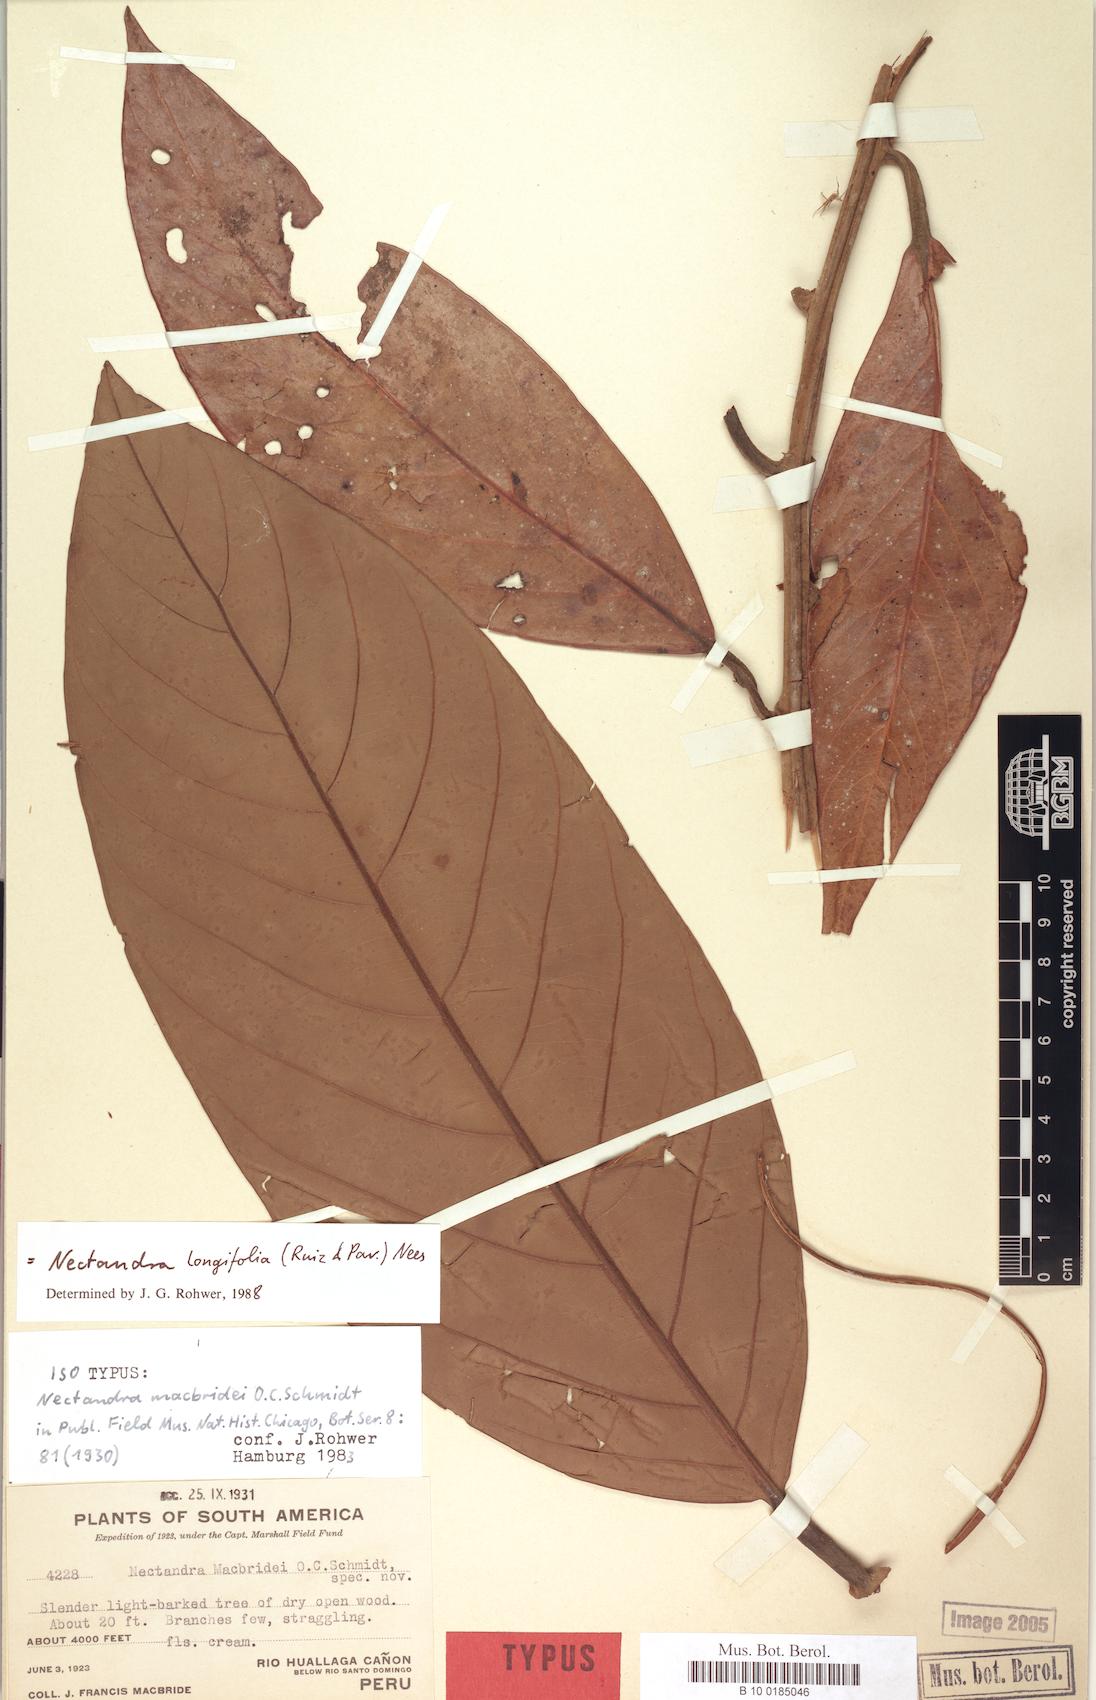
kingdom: Plantae
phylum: Tracheophyta
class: Magnoliopsida
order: Laurales
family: Lauraceae
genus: Nectandra
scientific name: Nectandra longifolia
